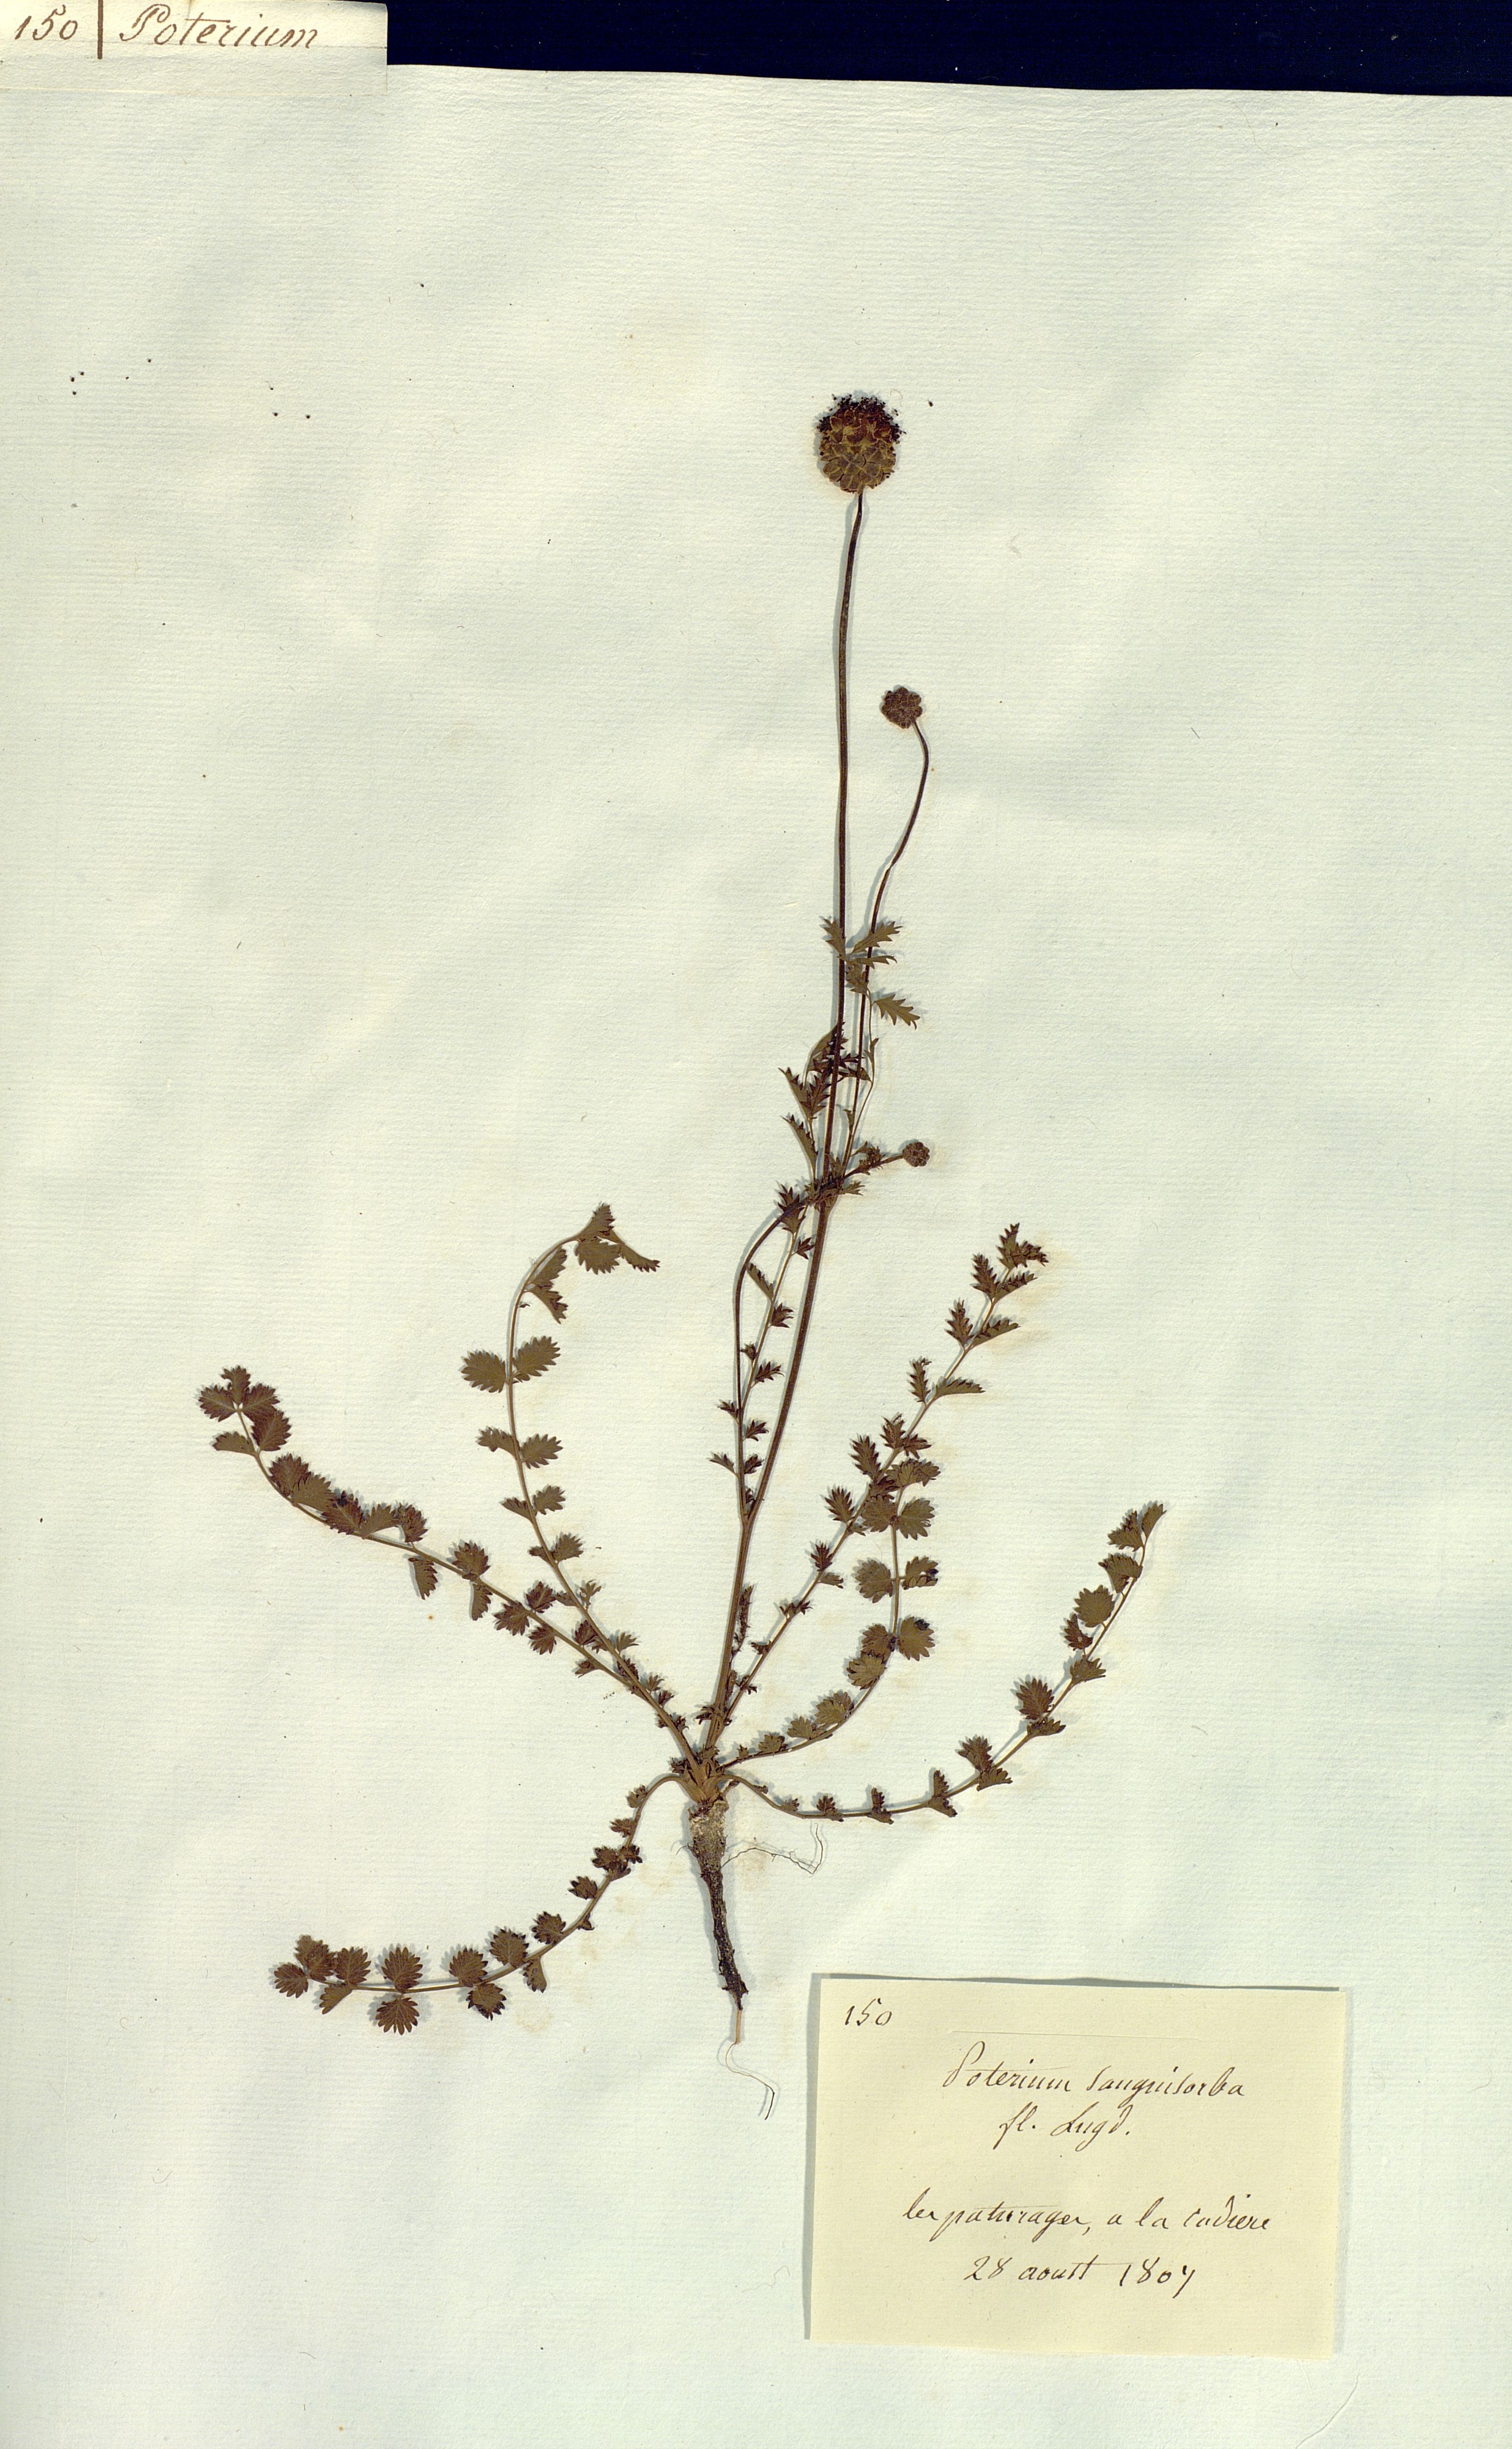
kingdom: Plantae
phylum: Tracheophyta
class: Magnoliopsida
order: Rosales
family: Rosaceae
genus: Poterium
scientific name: Poterium sanguisorba
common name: Salad burnet
